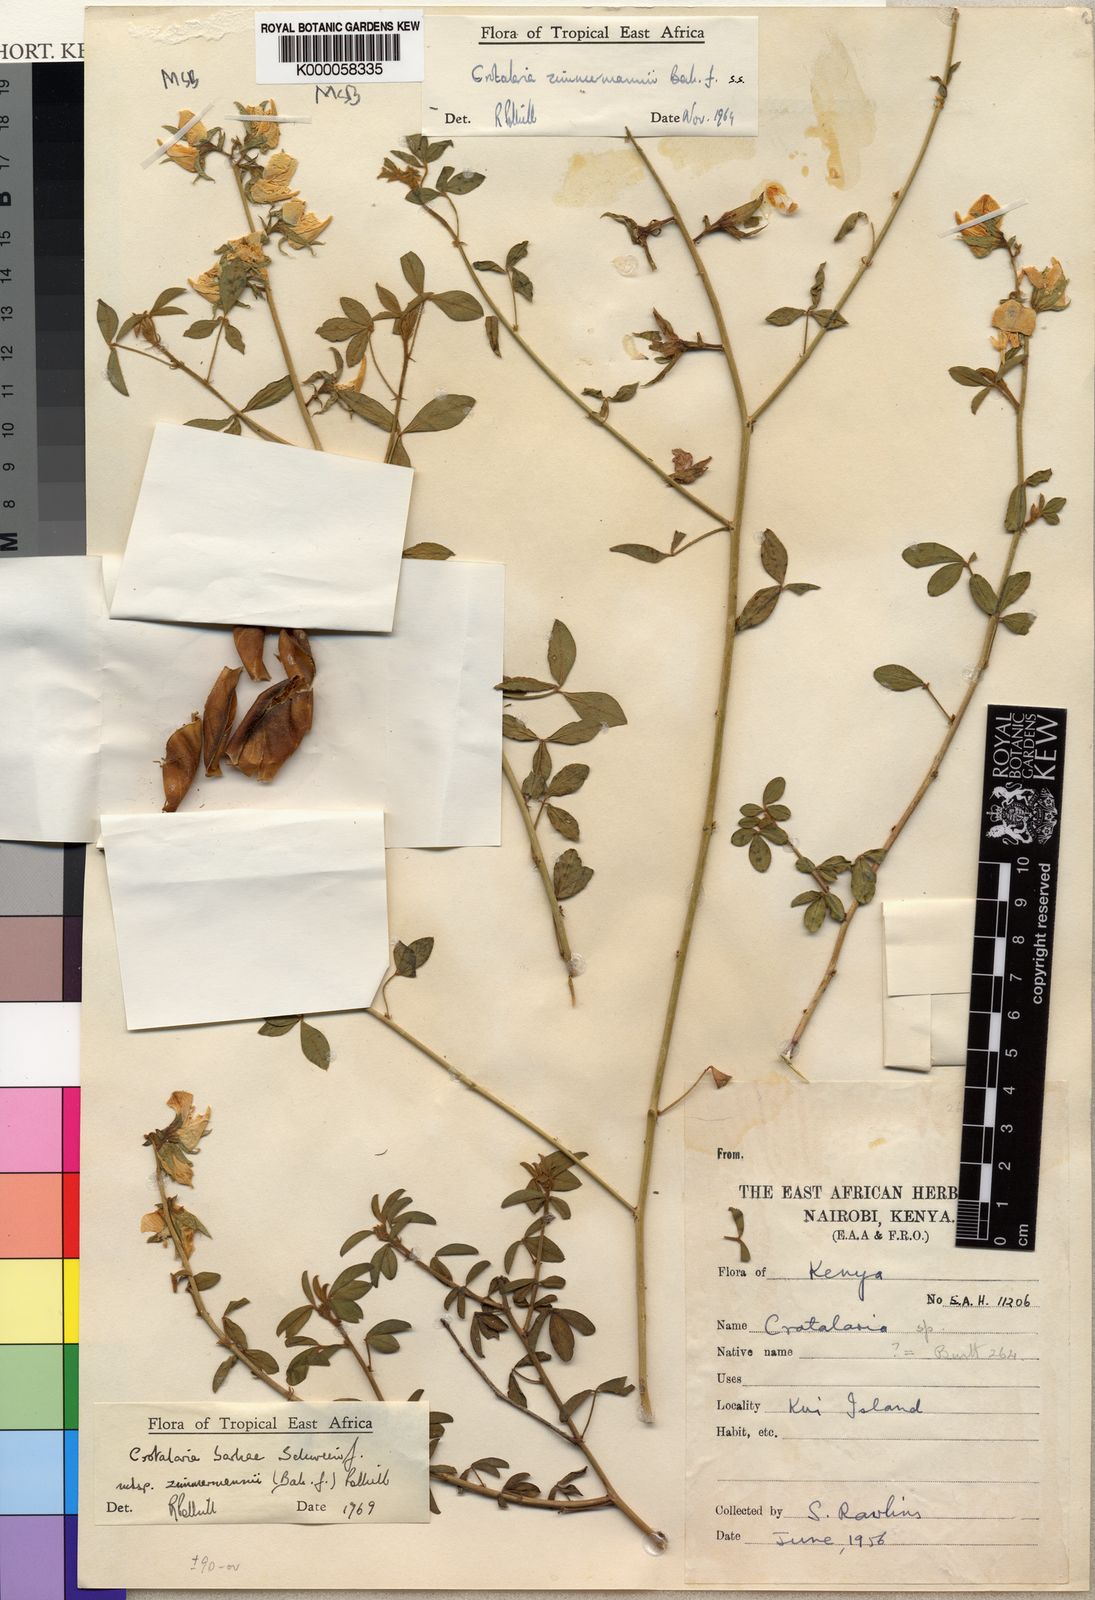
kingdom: Plantae
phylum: Tracheophyta
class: Magnoliopsida
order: Fabales
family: Fabaceae
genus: Crotalaria
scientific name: Crotalaria barkae
